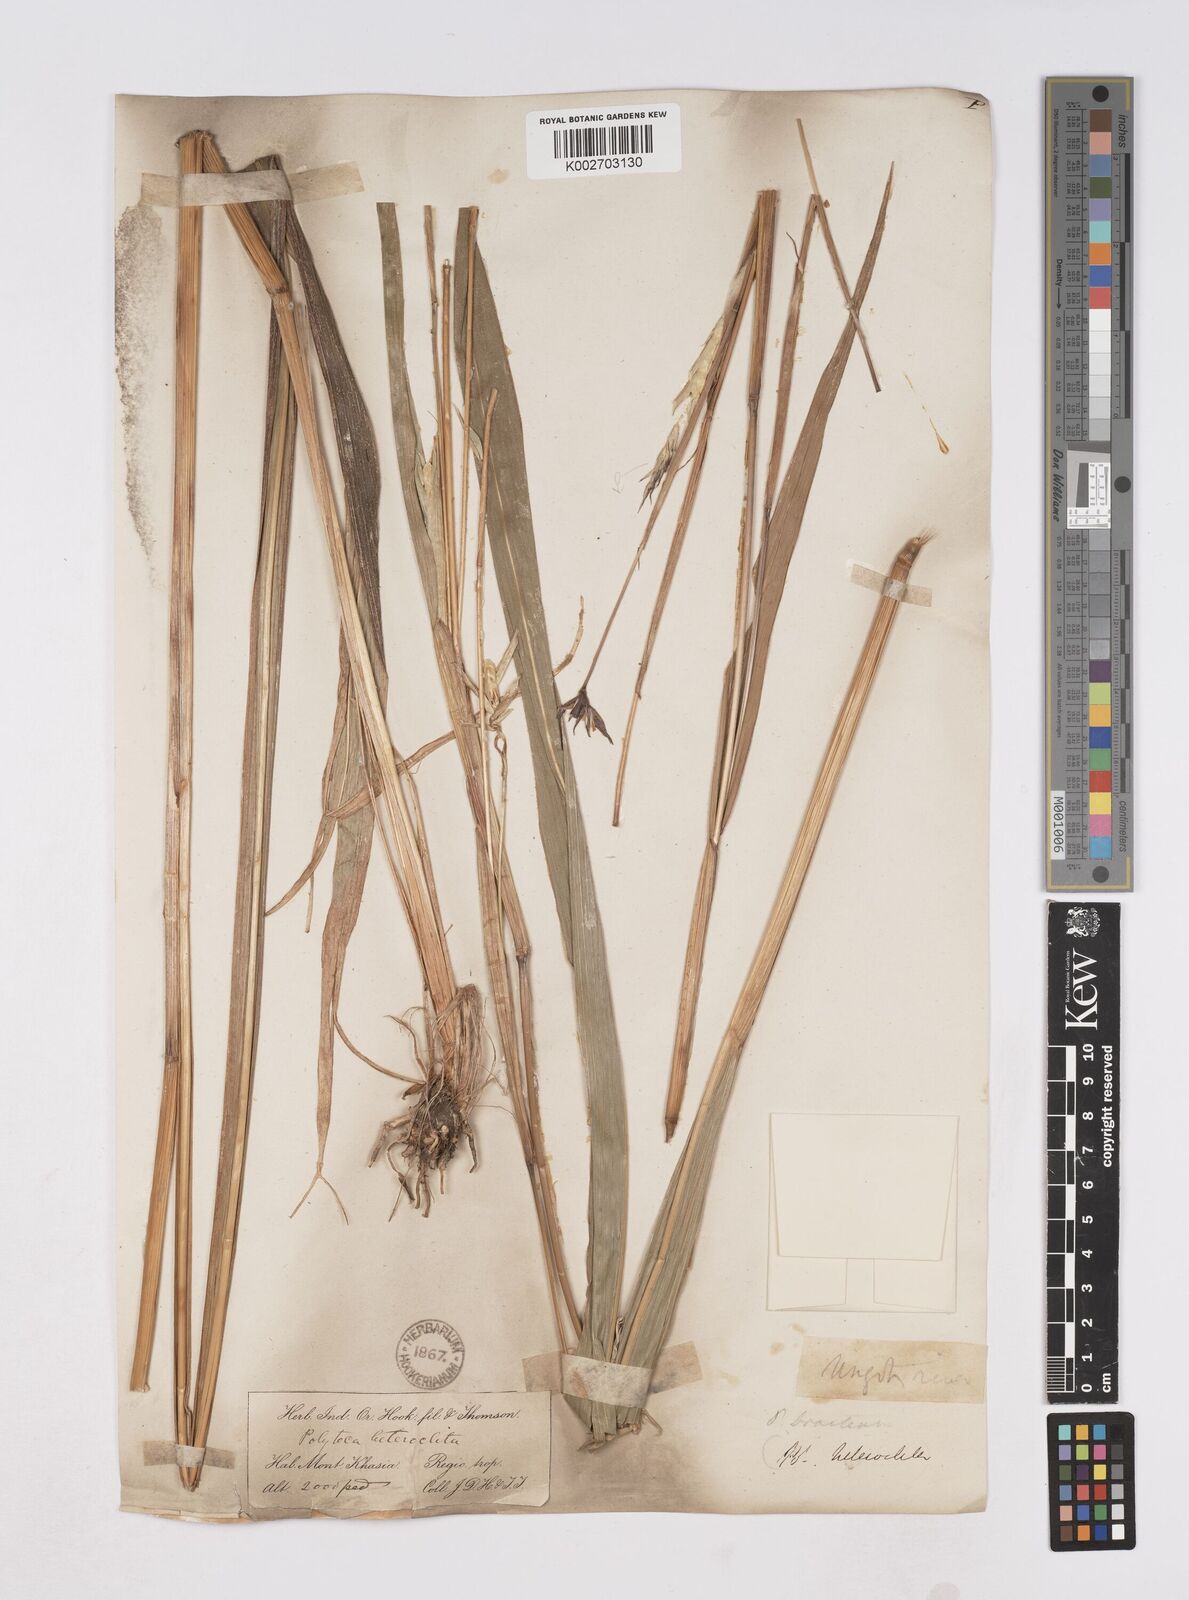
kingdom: Plantae
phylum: Tracheophyta
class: Liliopsida
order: Poales
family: Poaceae
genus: Polytoca
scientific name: Polytoca digitata
